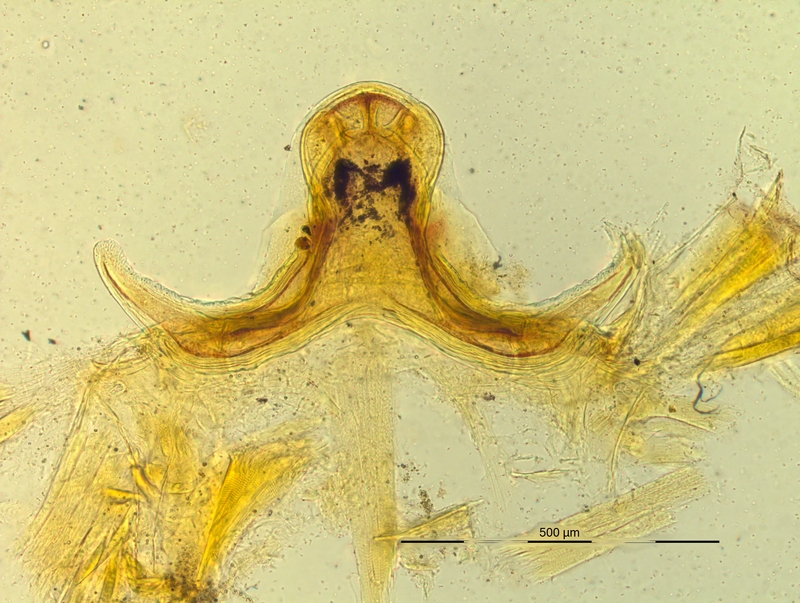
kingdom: Animalia
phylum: Arthropoda
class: Diplopoda
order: Chordeumatida
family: Craspedosomatidae
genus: Pyrgocyphosoma
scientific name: Pyrgocyphosoma brunatense
